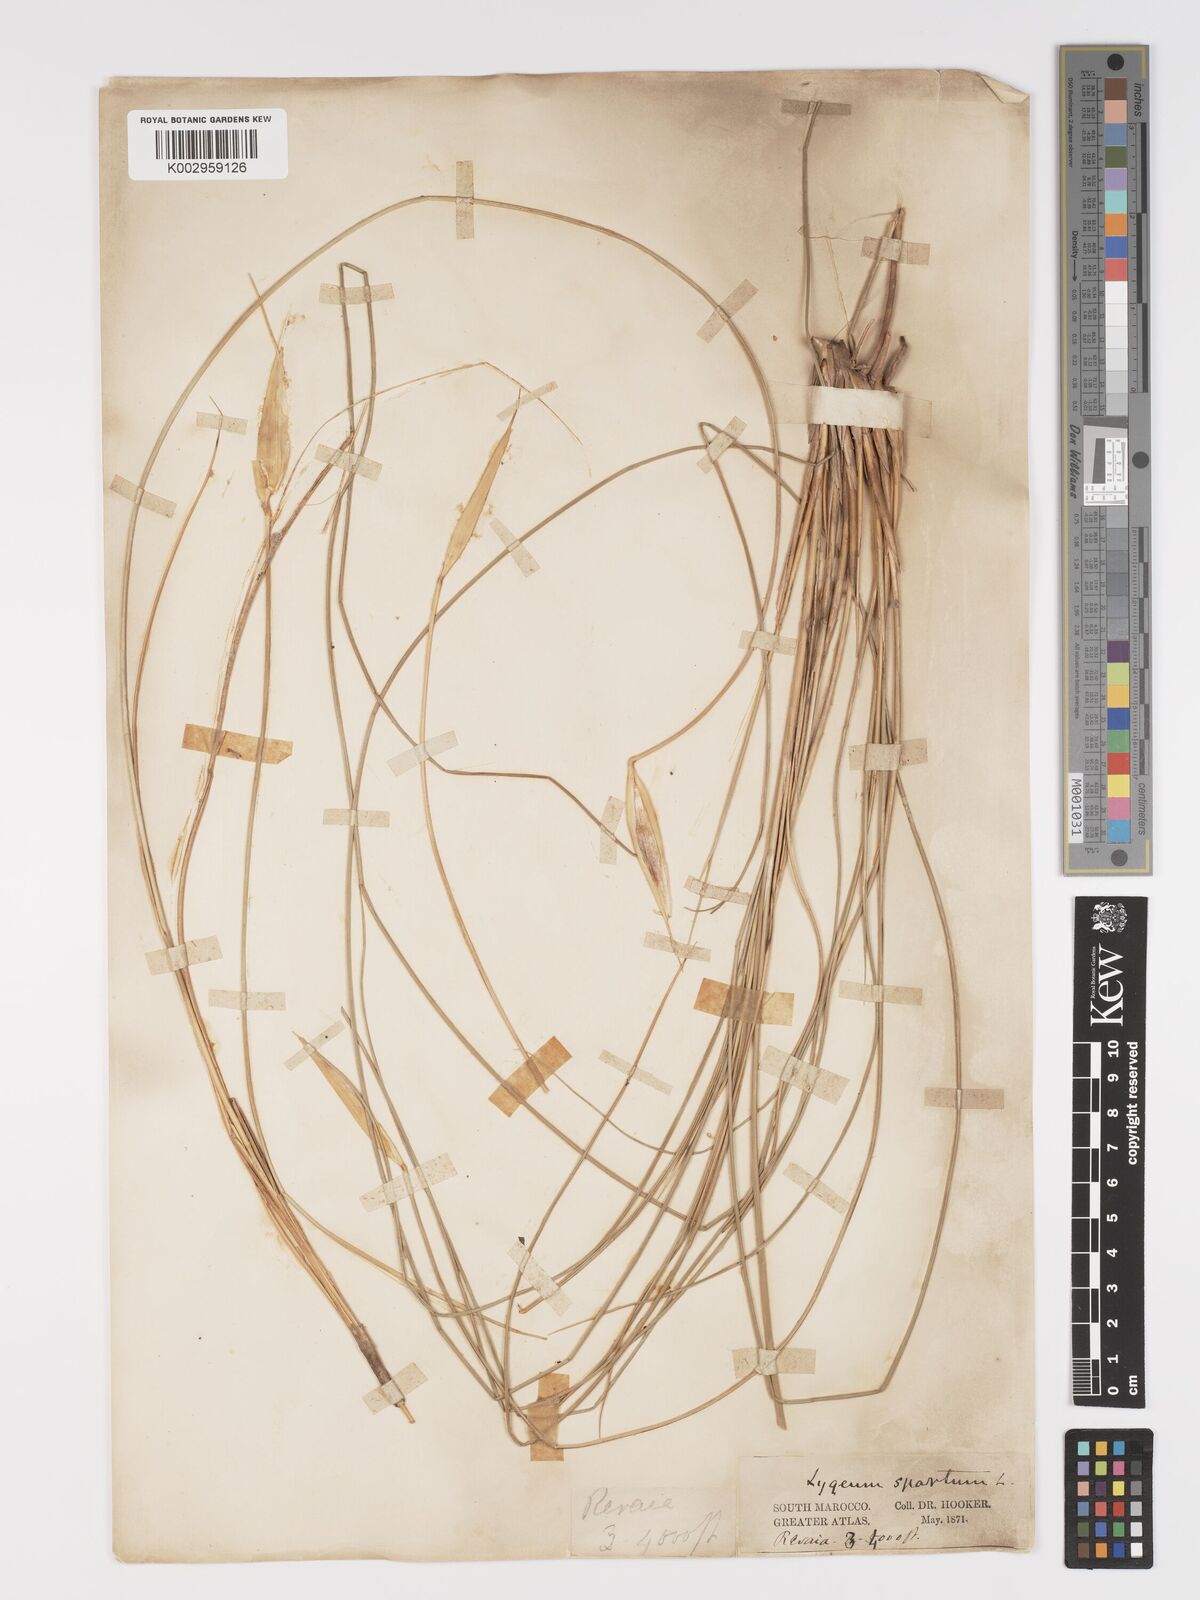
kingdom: Plantae
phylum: Tracheophyta
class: Liliopsida
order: Poales
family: Poaceae
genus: Lygeum
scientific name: Lygeum spartum
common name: Albardine
